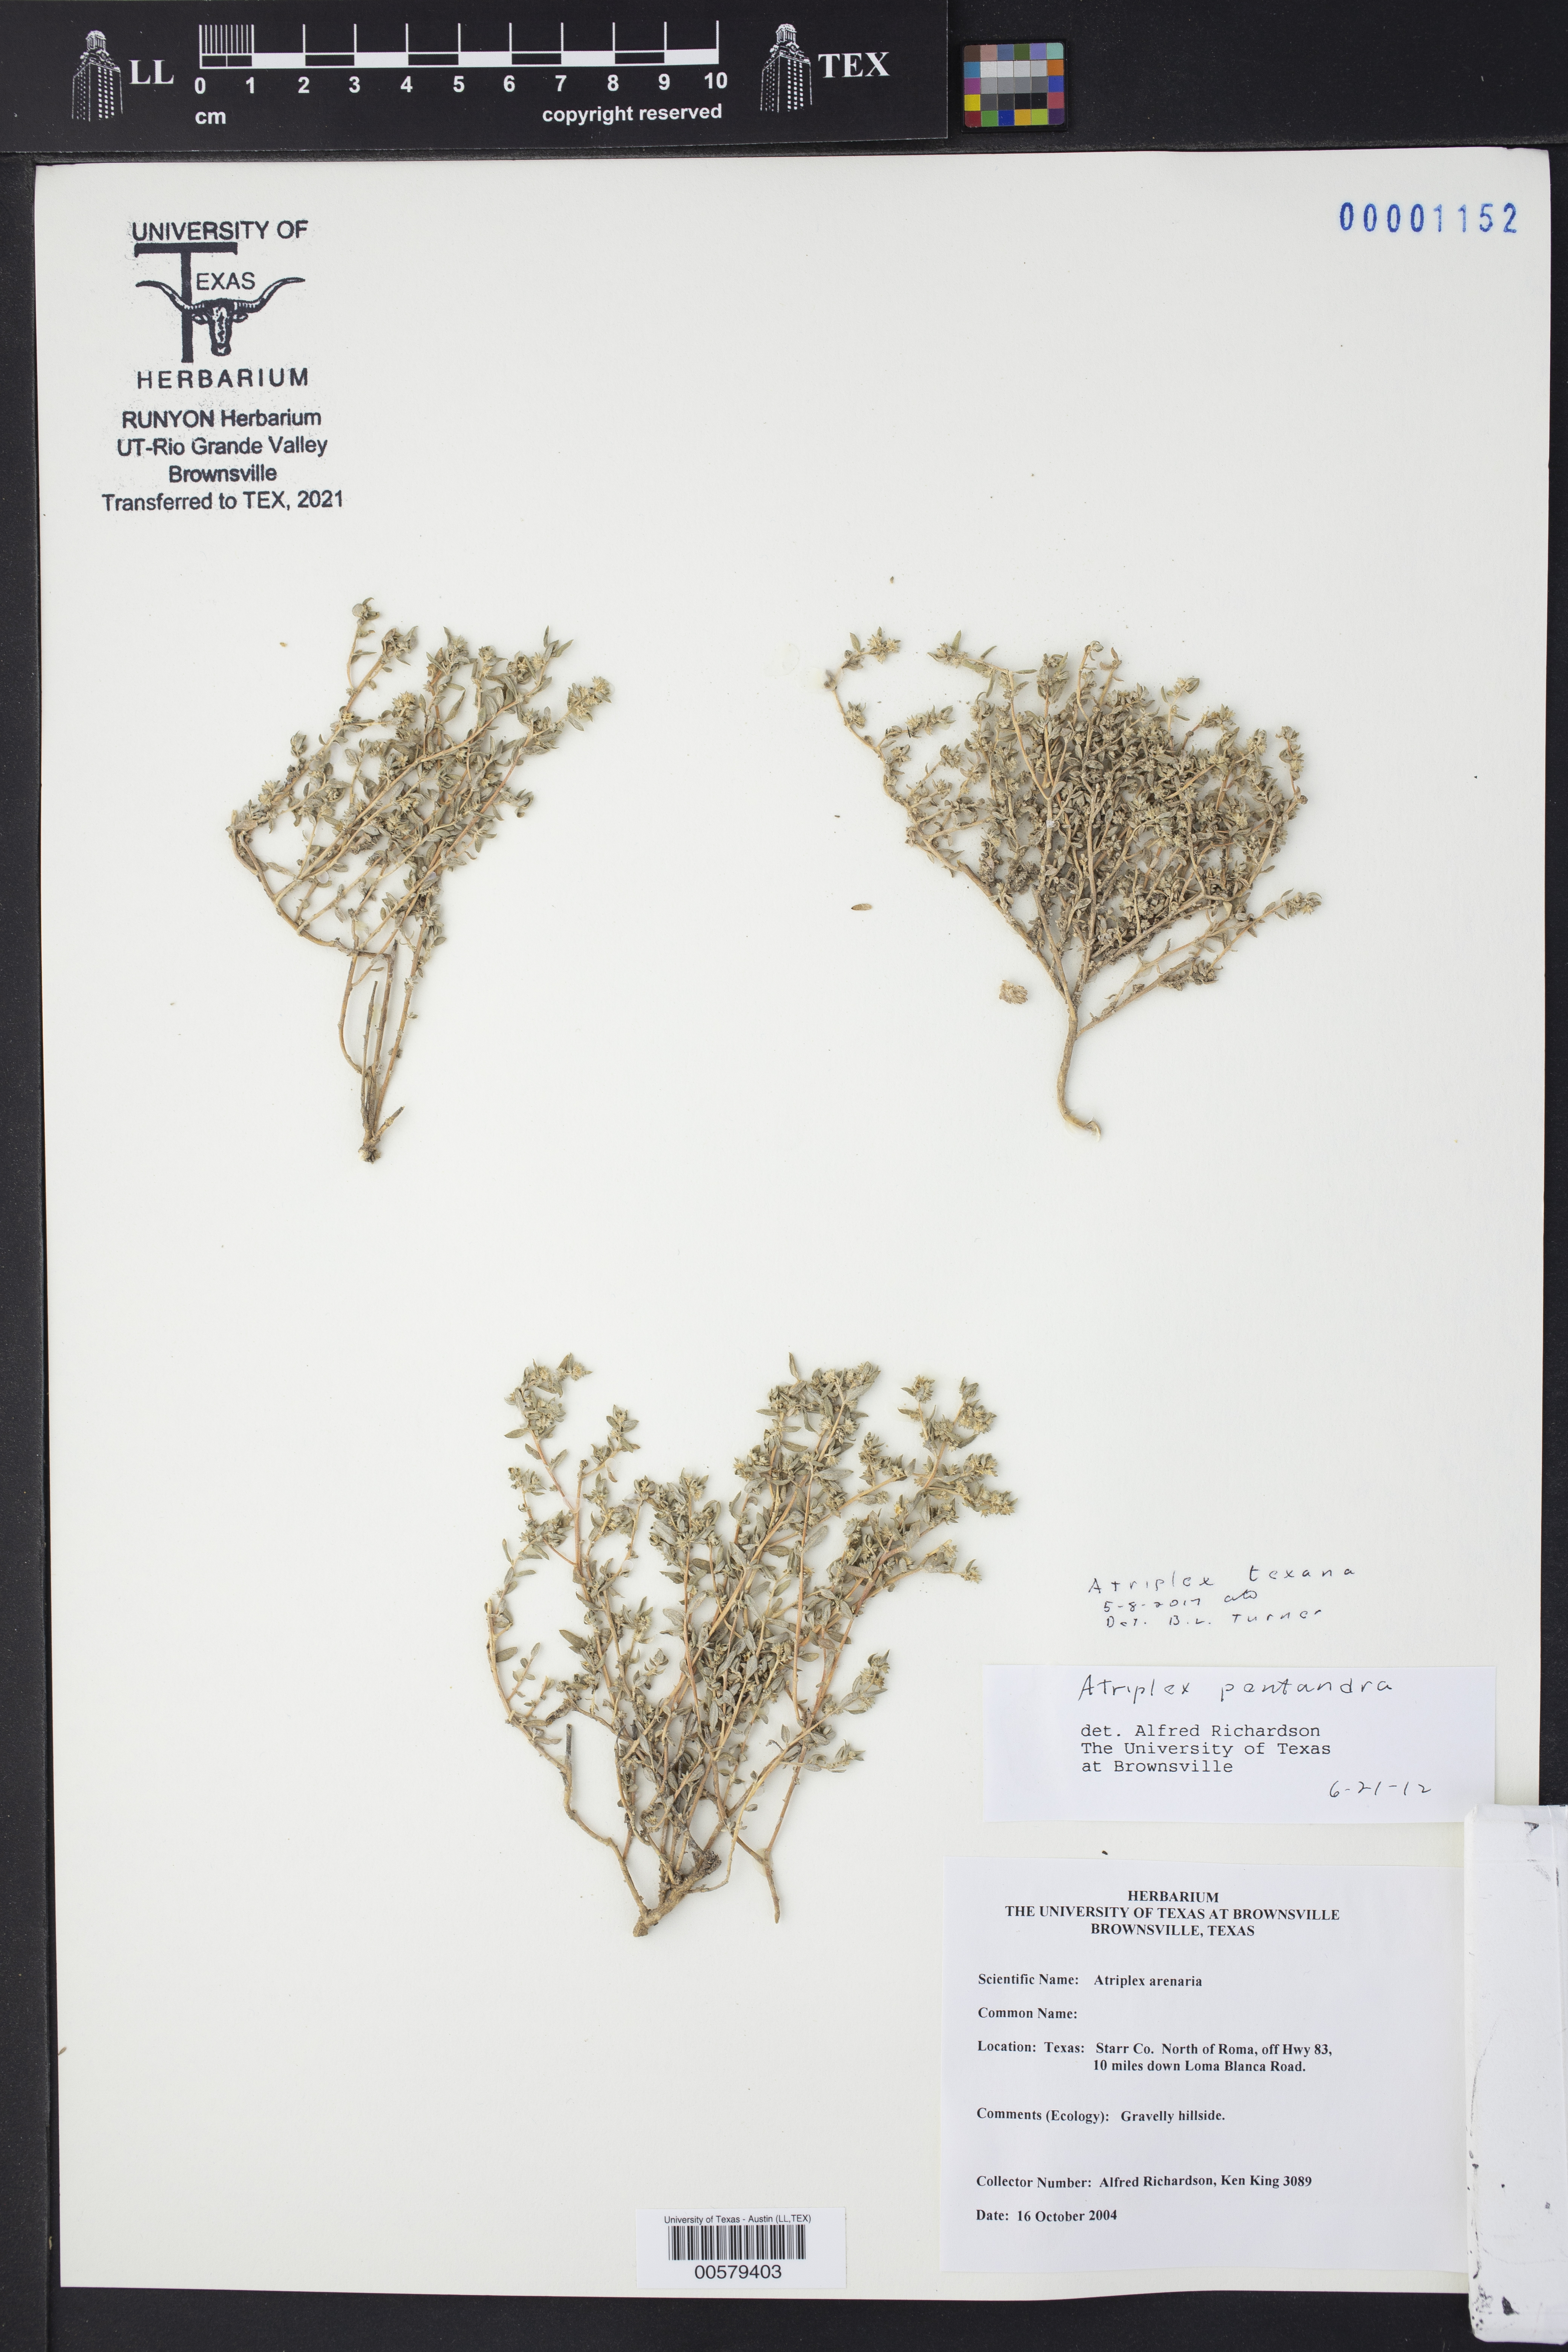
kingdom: Plantae
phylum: Tracheophyta
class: Magnoliopsida
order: Caryophyllales
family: Amaranthaceae
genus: Atriplex
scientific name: Atriplex texana
